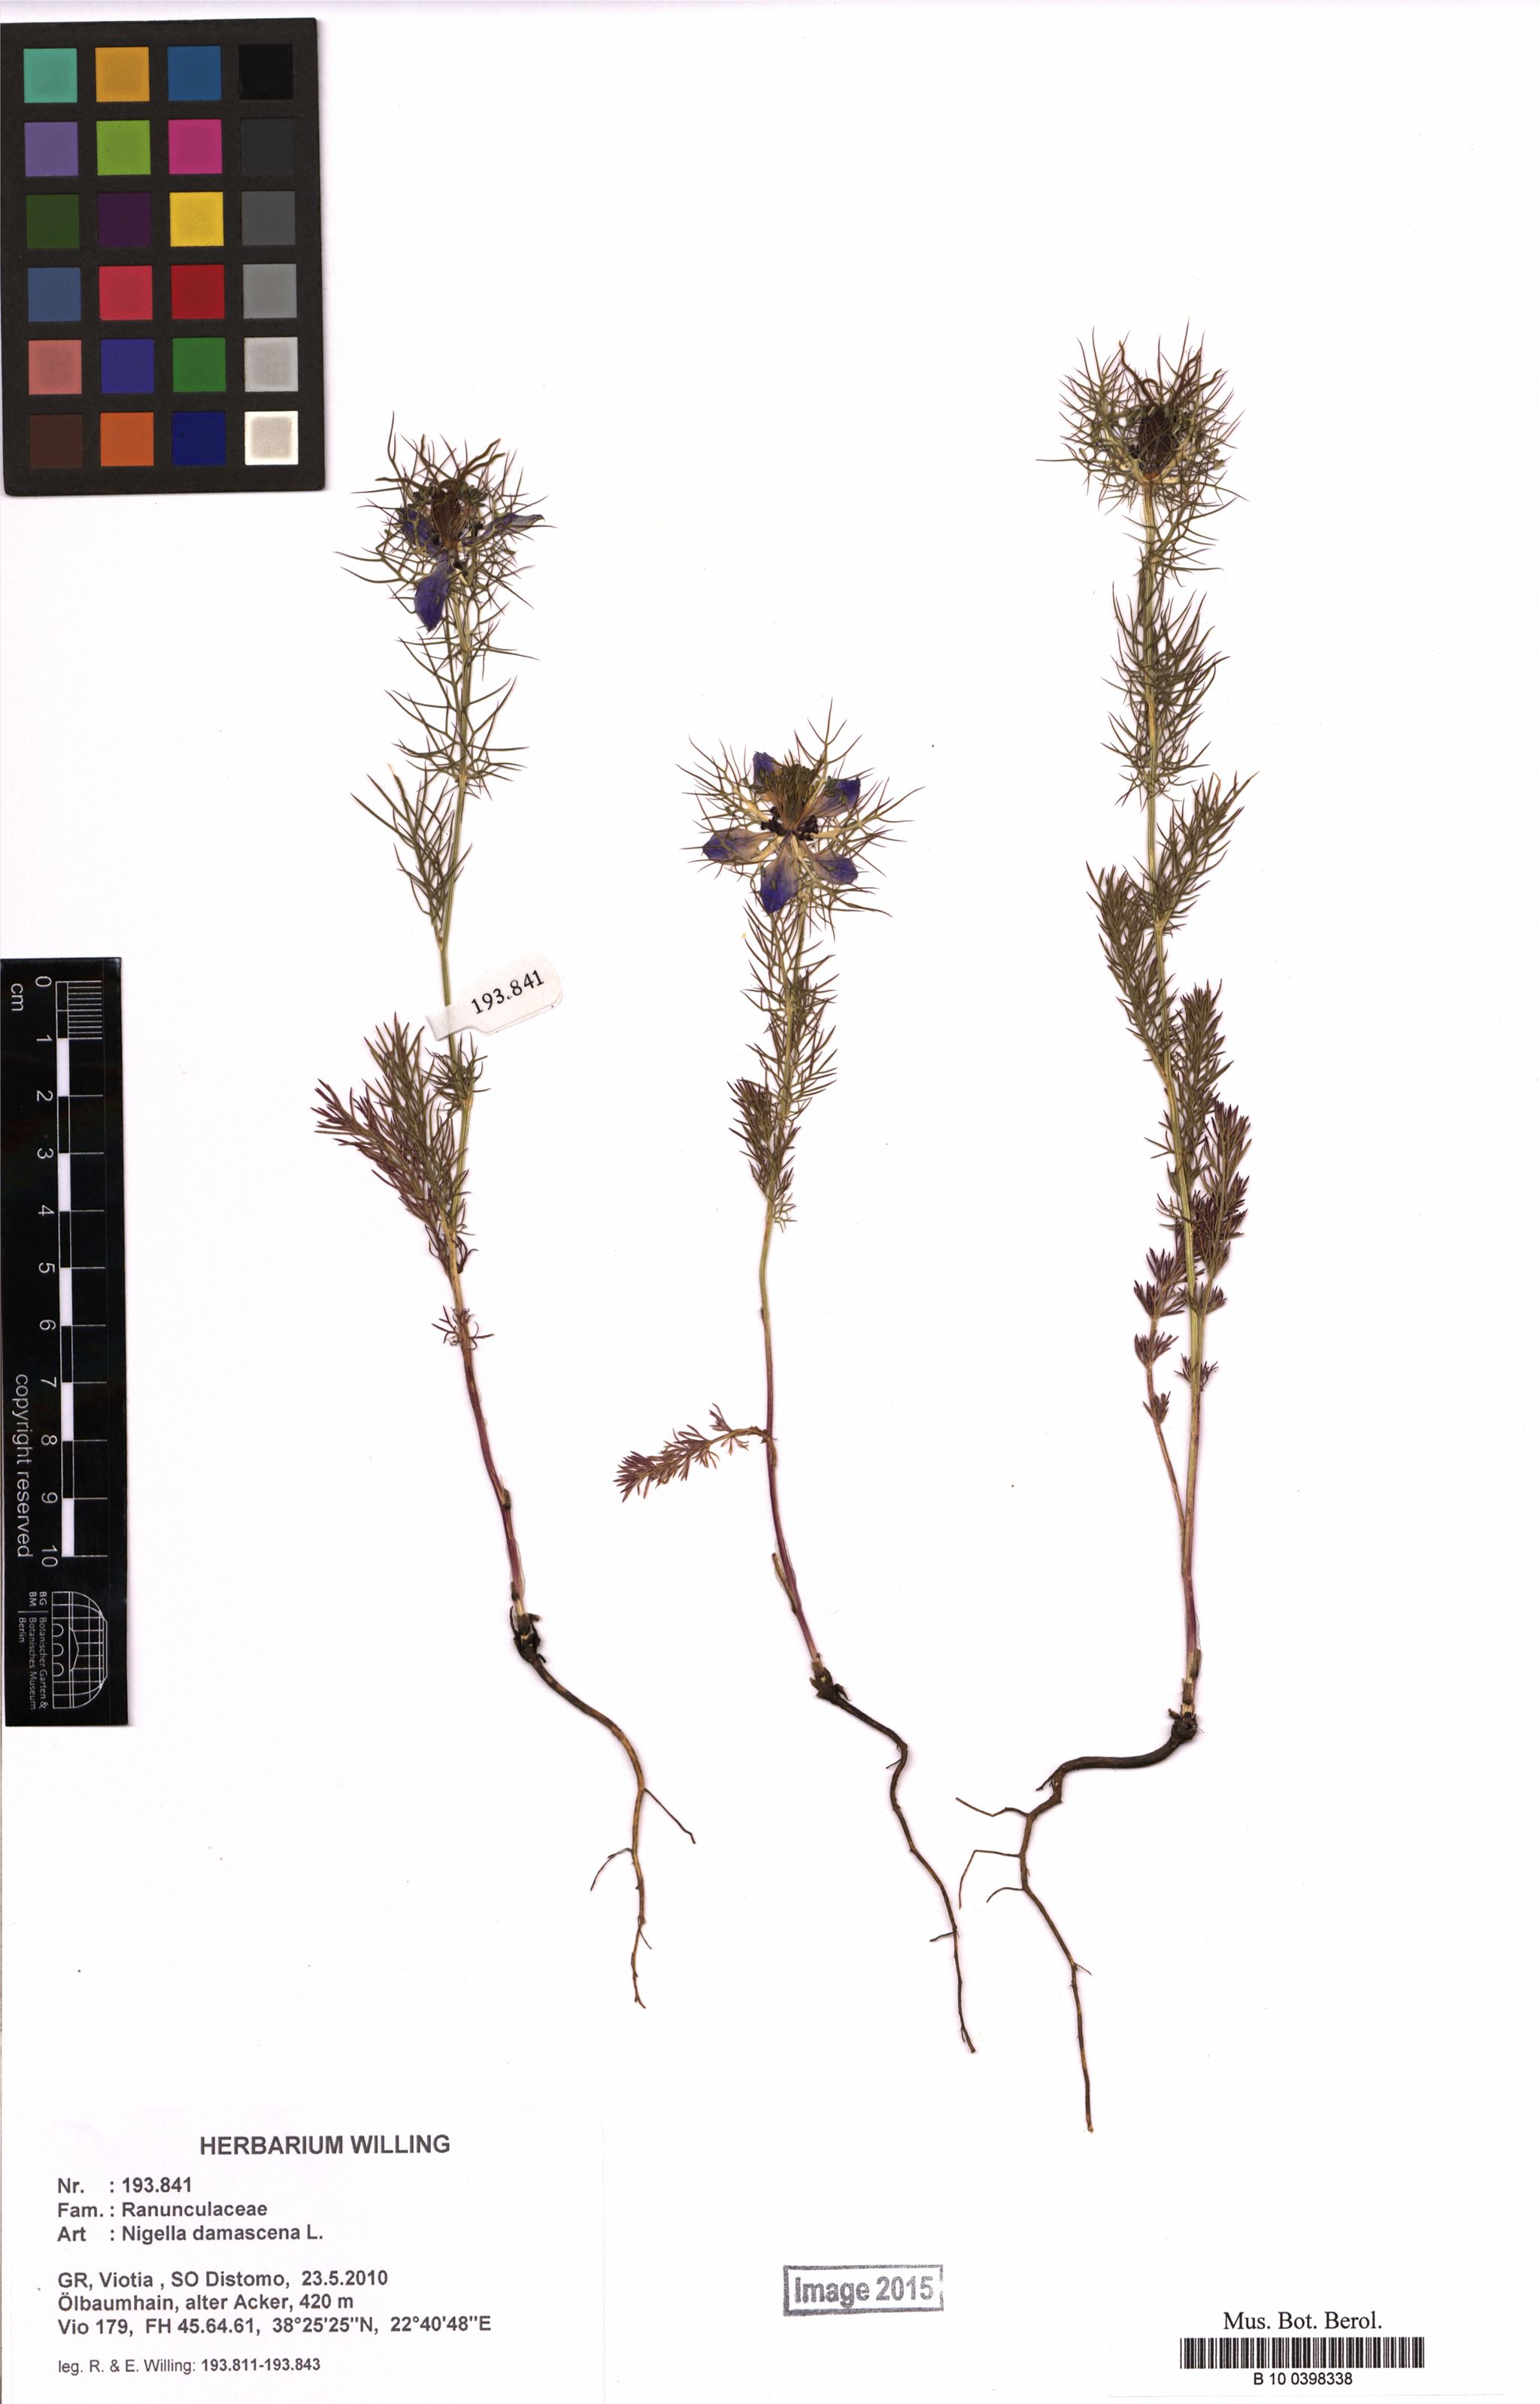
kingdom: Plantae
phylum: Tracheophyta
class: Magnoliopsida
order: Ranunculales
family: Ranunculaceae
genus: Nigella
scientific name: Nigella damascena
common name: Love-in-a-mist
